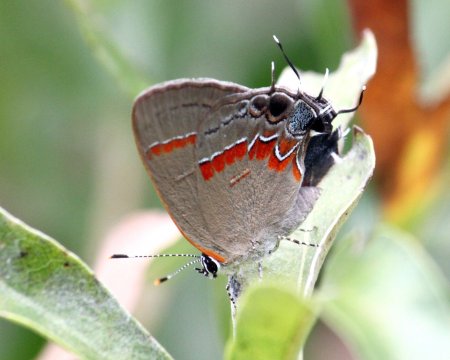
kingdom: Animalia
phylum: Arthropoda
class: Insecta
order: Lepidoptera
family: Lycaenidae
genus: Calycopis
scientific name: Calycopis cecrops
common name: Red-banded Hairstreak
